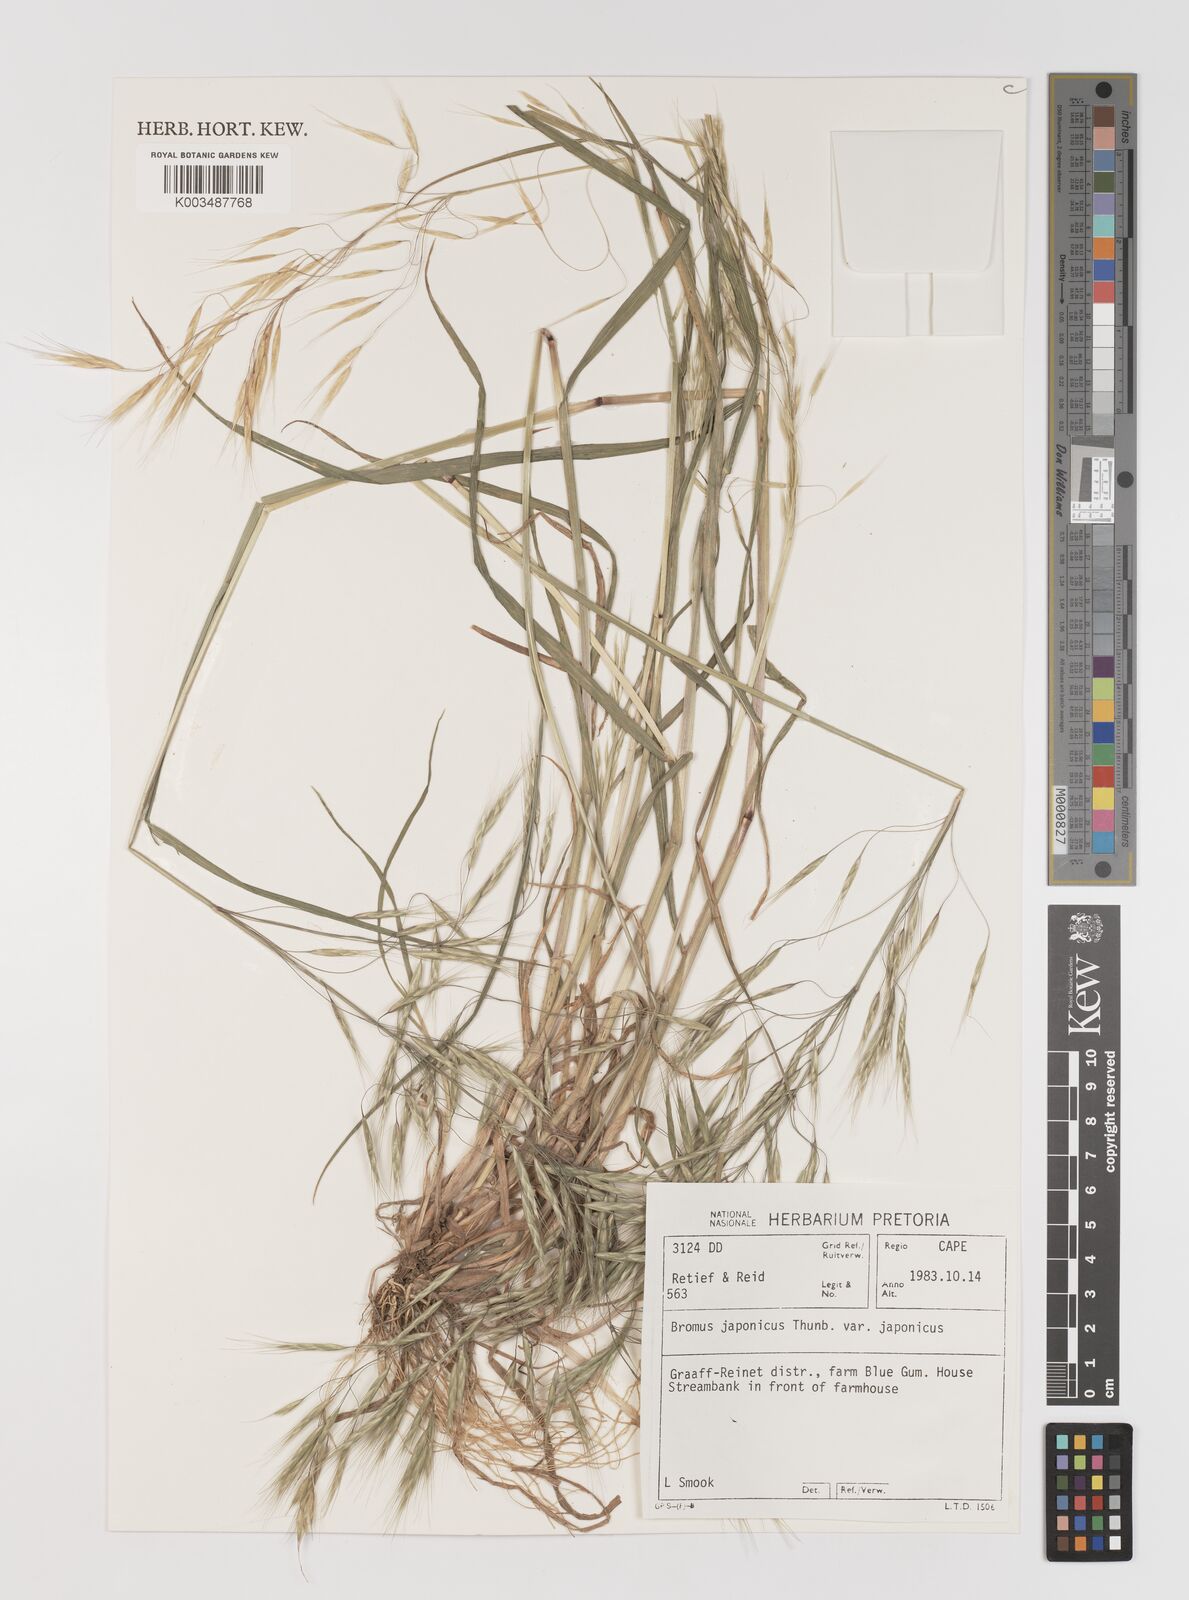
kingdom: Plantae
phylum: Tracheophyta
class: Liliopsida
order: Poales
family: Poaceae
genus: Bromus
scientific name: Bromus pectinatus
